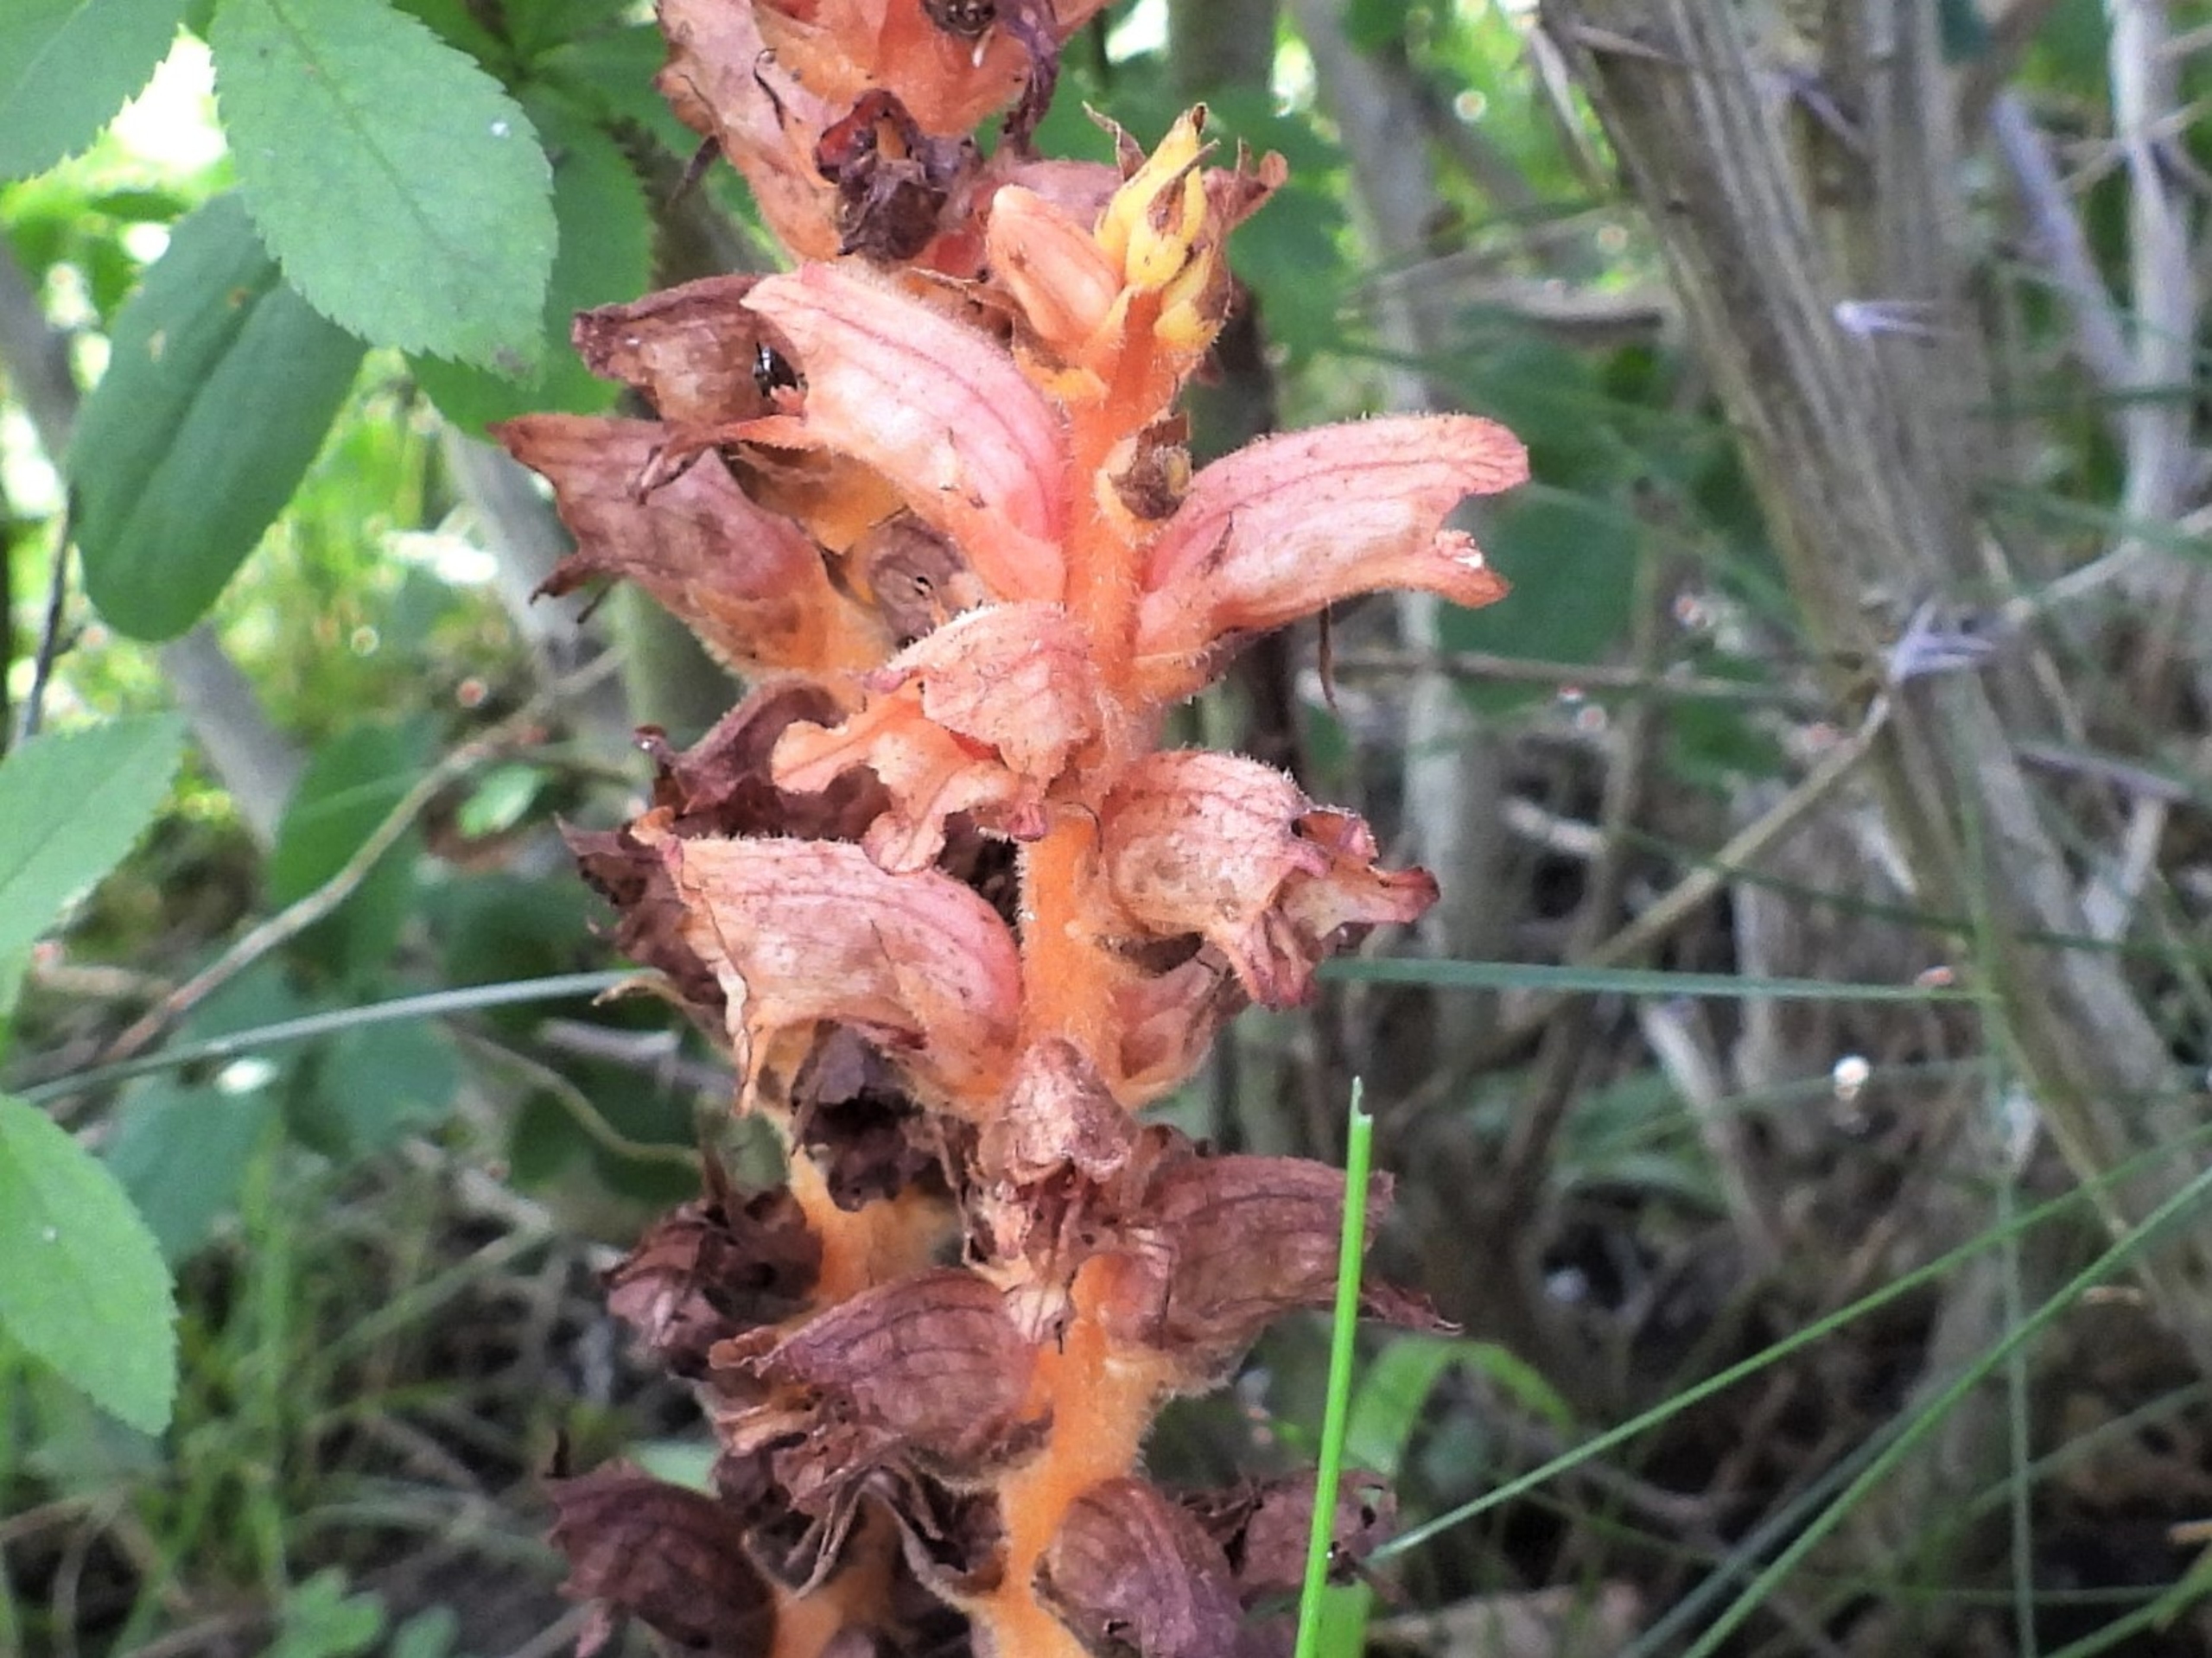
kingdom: Plantae
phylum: Tracheophyta
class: Magnoliopsida
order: Lamiales
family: Orobanchaceae
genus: Orobanche
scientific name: Orobanche lucorum
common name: Berberis-gyvelkvæler
